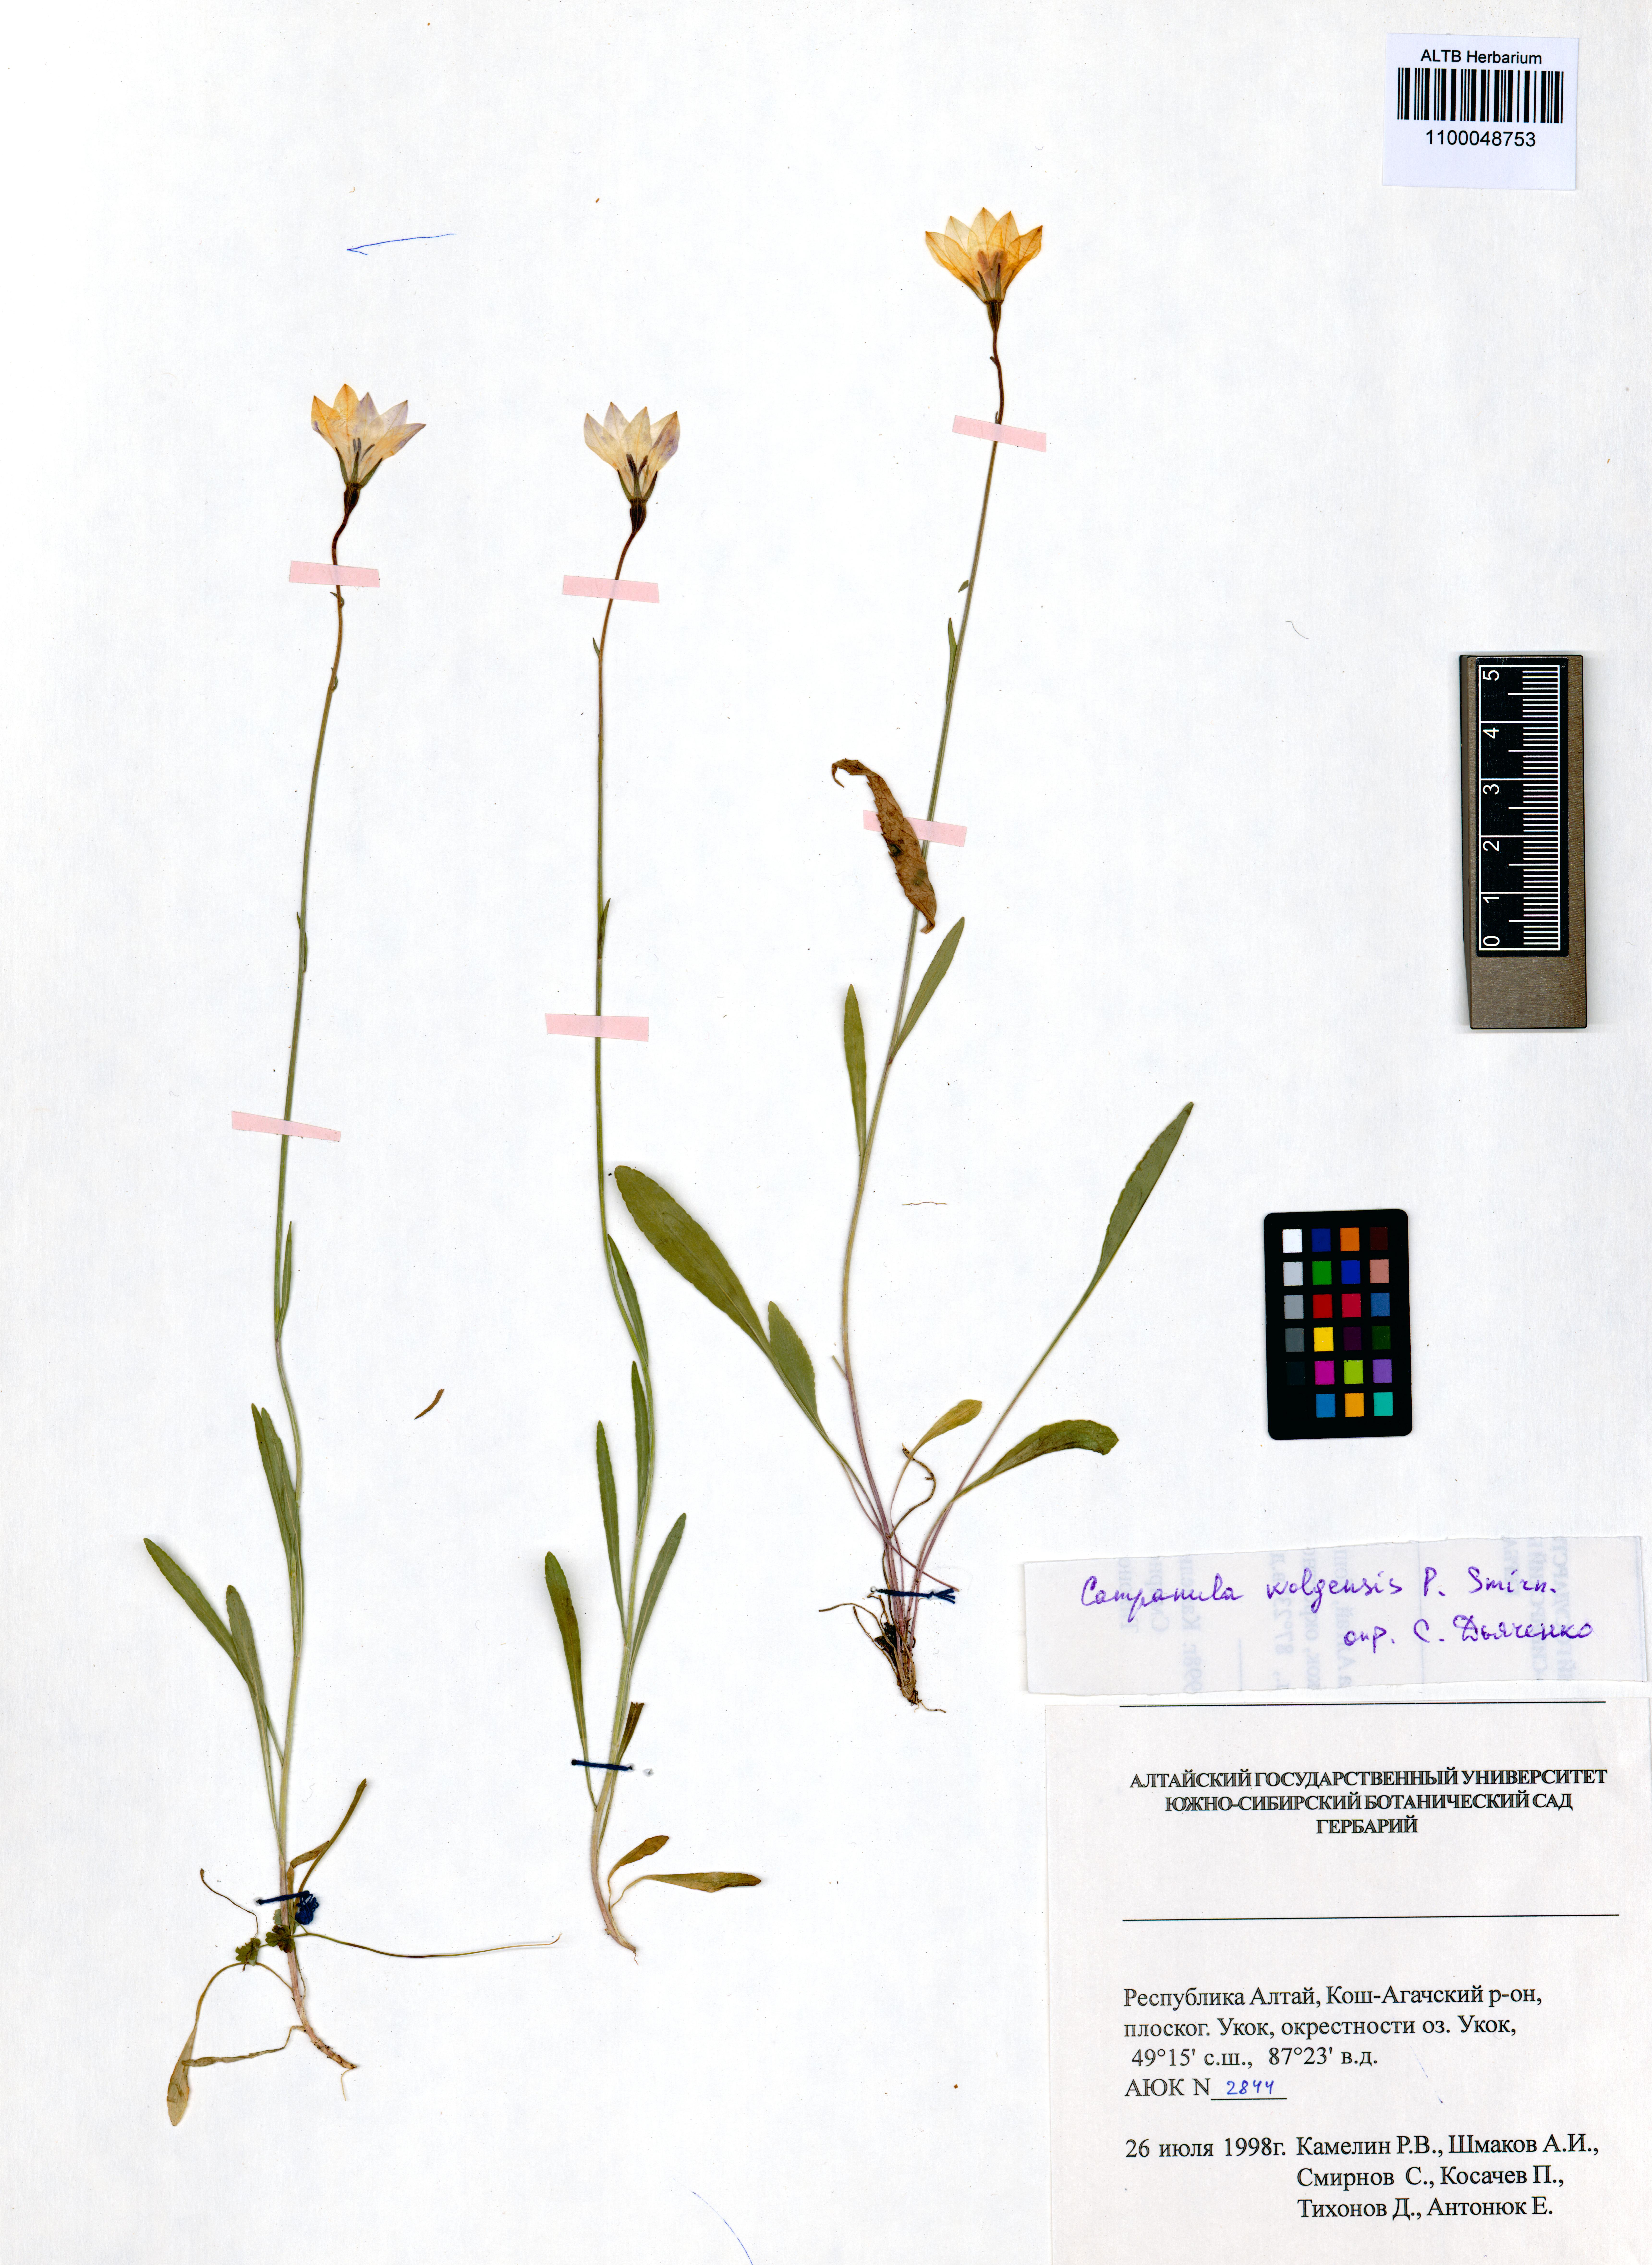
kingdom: Plantae
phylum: Tracheophyta
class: Magnoliopsida
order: Asterales
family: Campanulaceae
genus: Campanula
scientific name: Campanula stevenii
